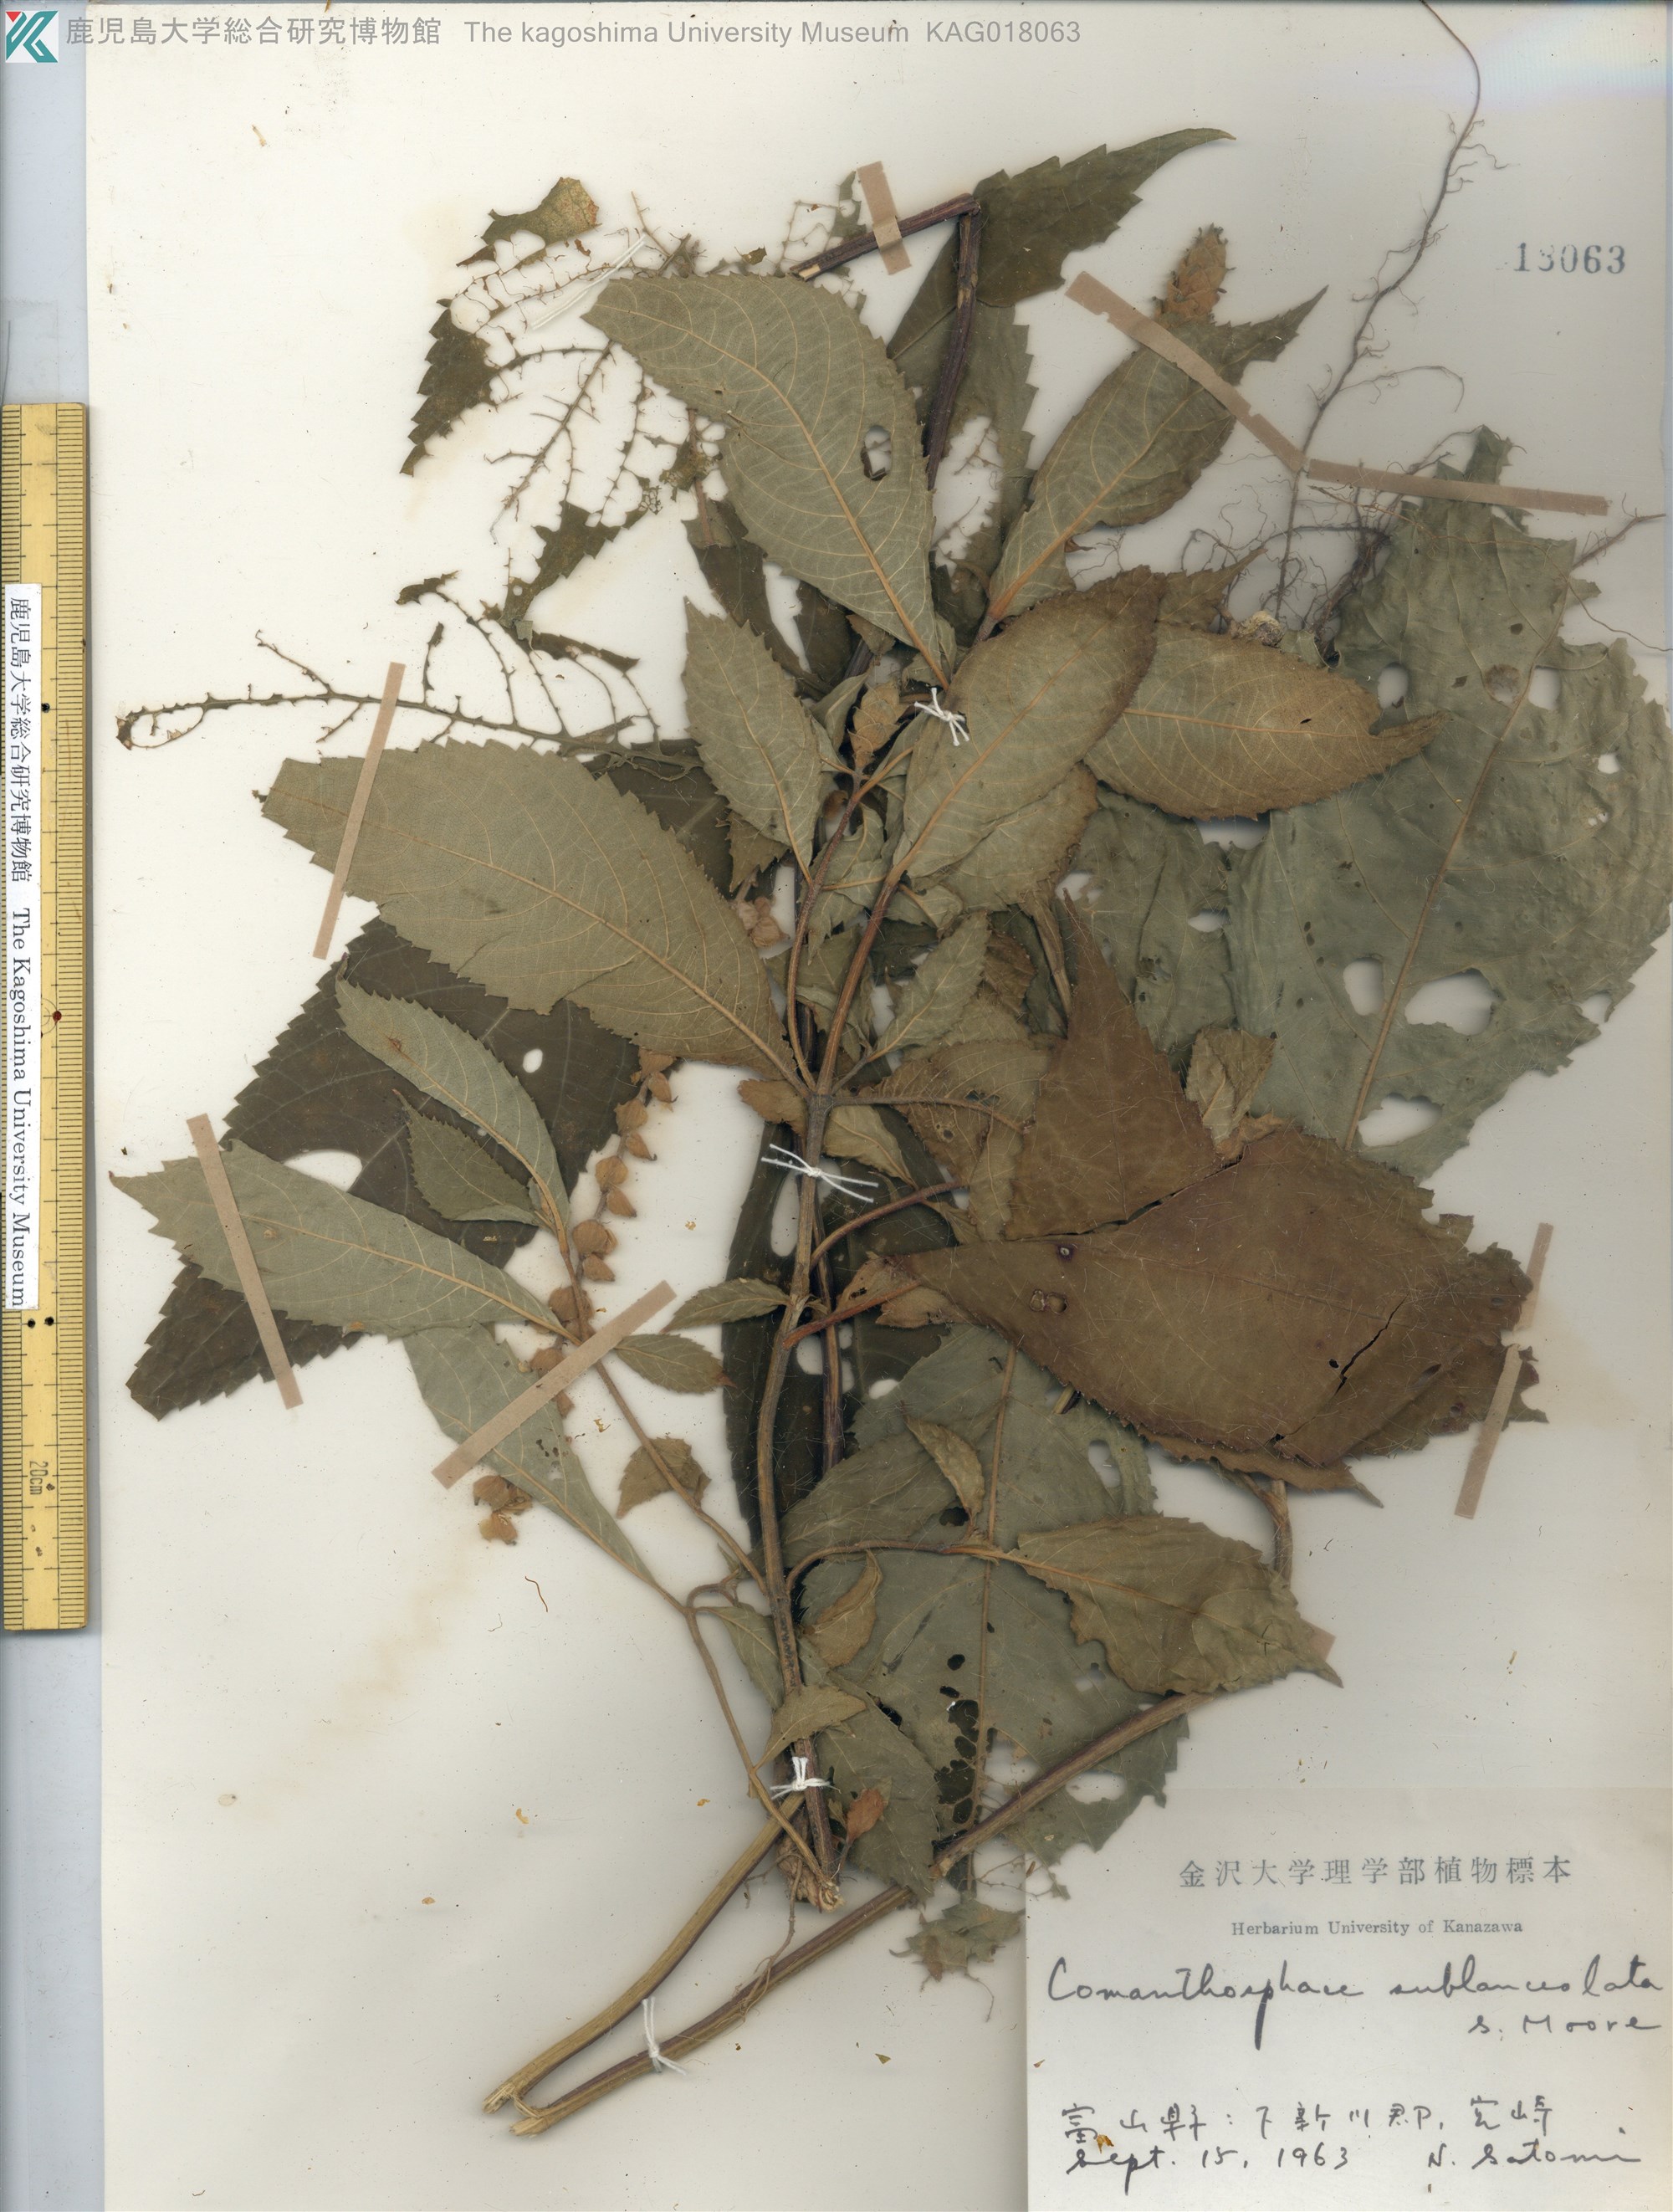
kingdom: Plantae
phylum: Tracheophyta
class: Magnoliopsida
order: Lamiales
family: Lamiaceae
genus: Comanthosphace
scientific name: Comanthosphace japonica
